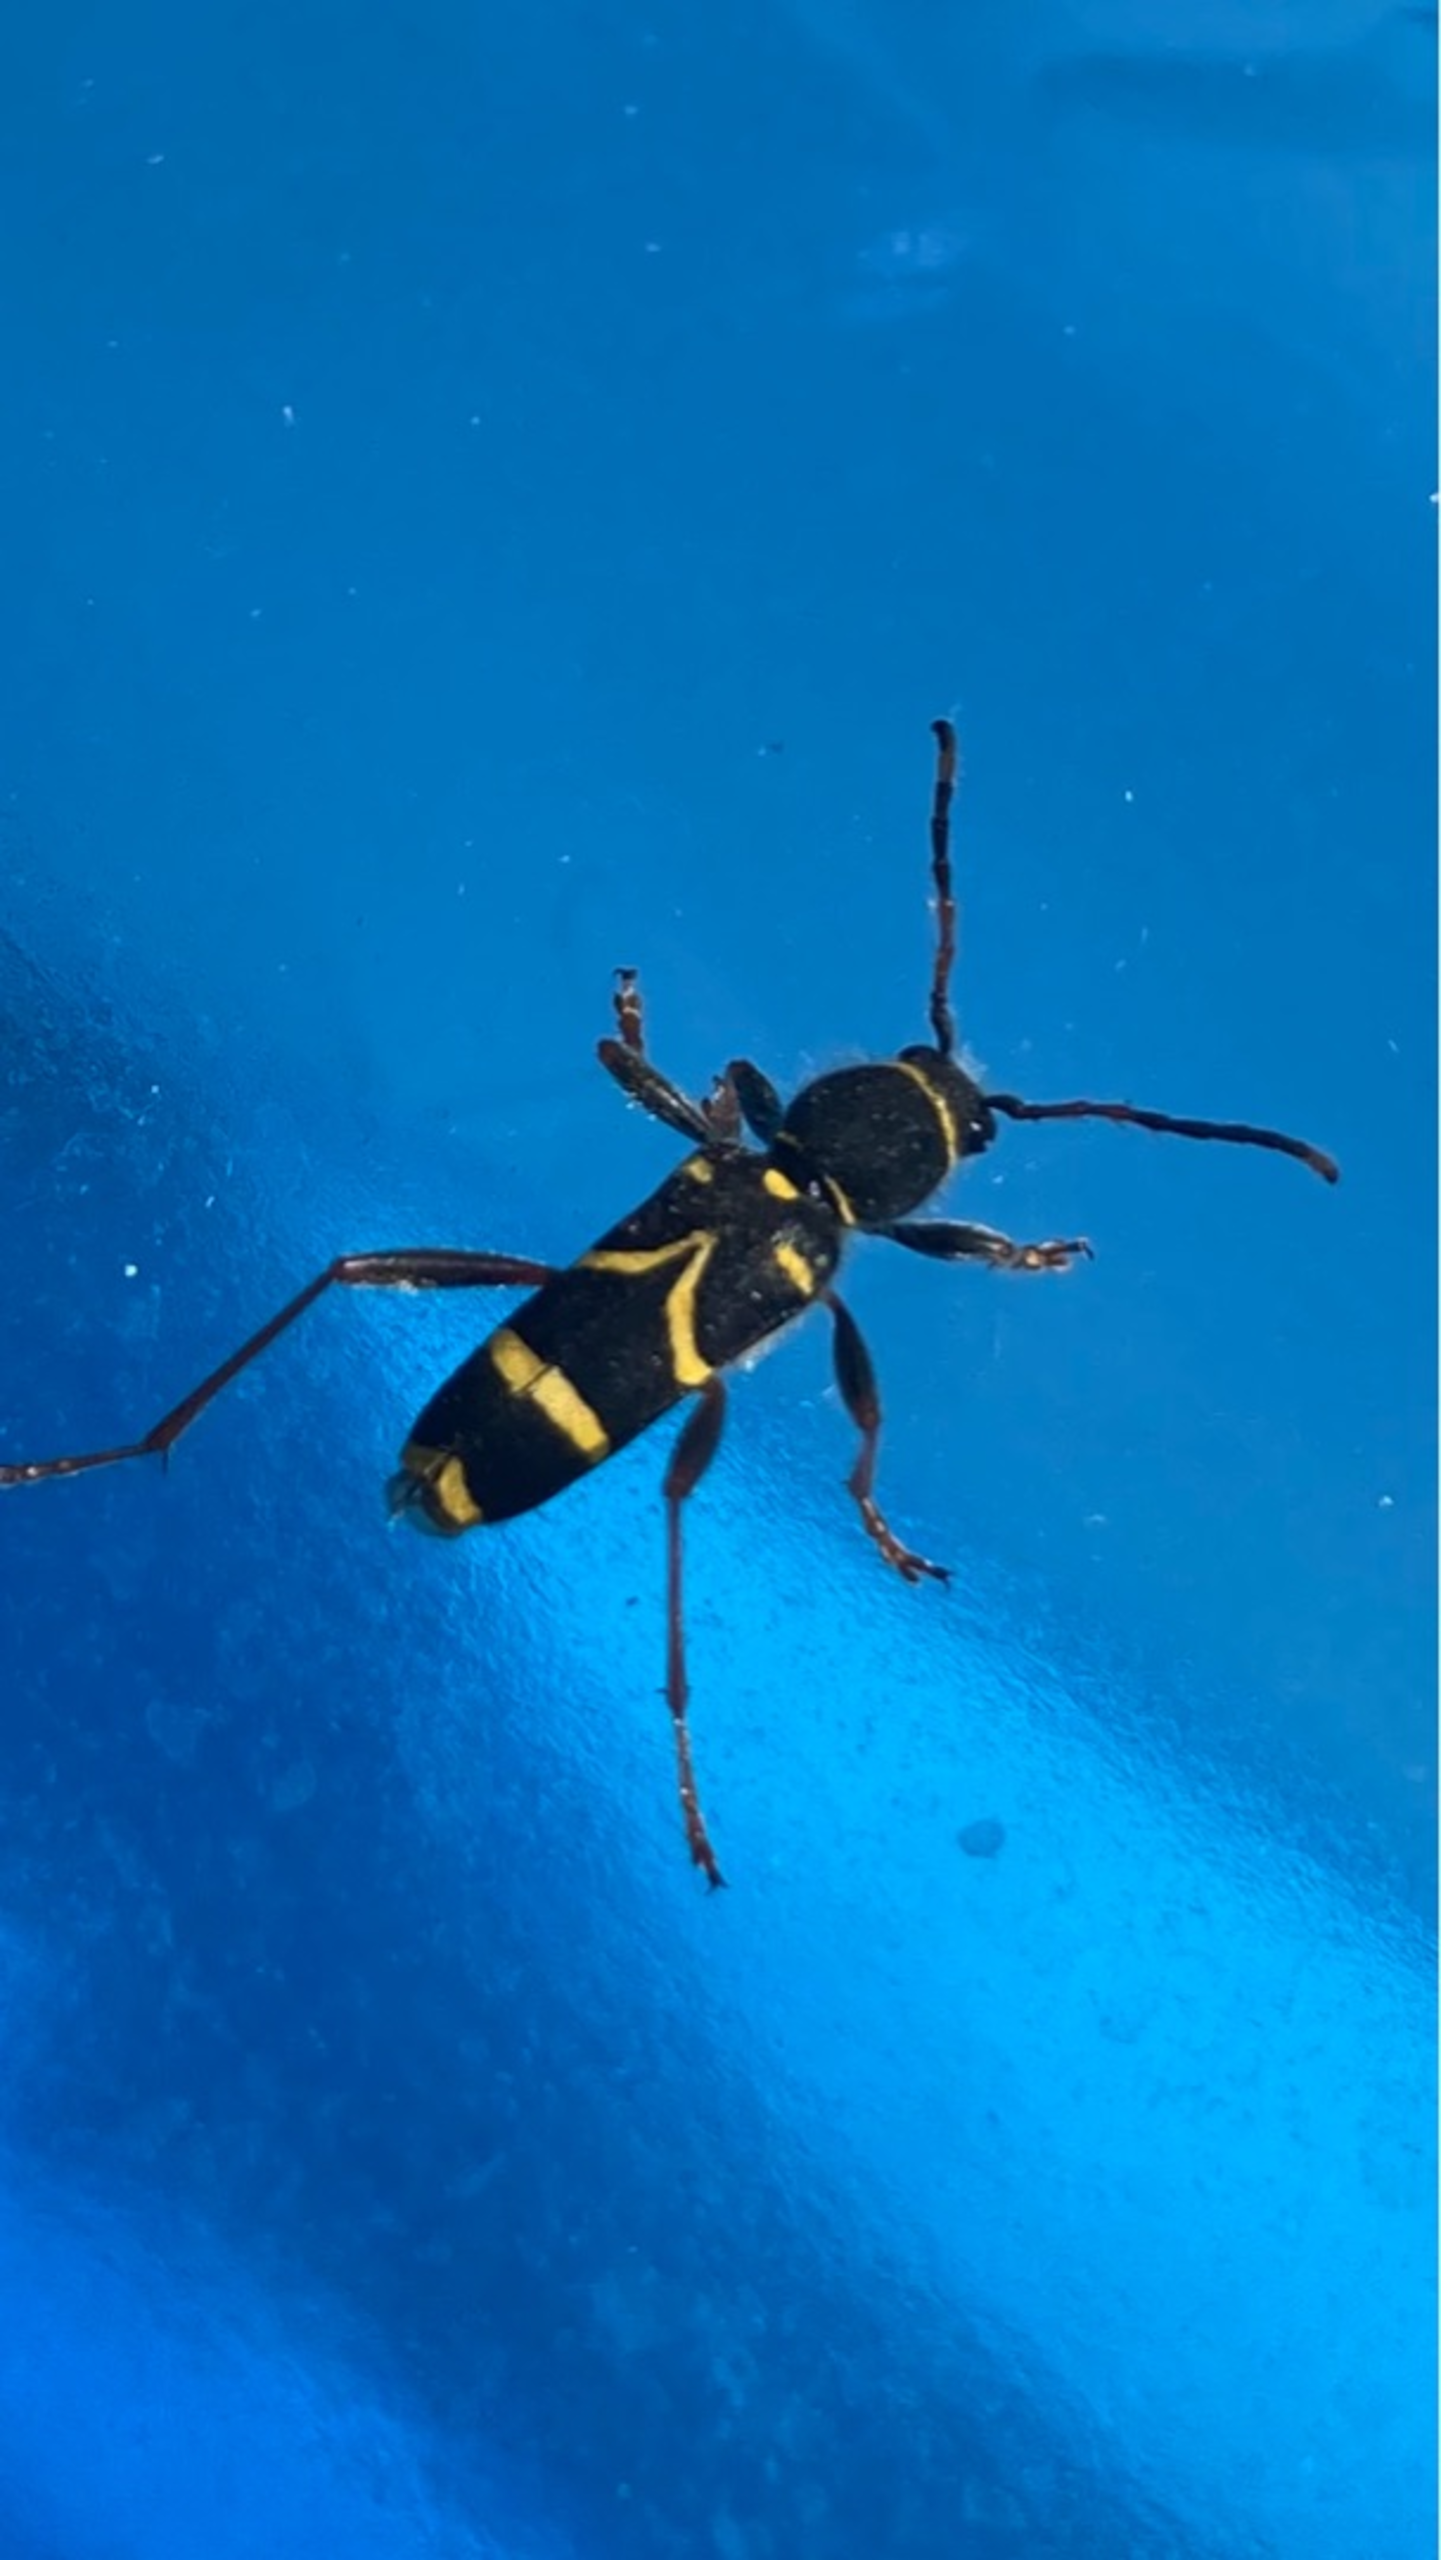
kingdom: Animalia
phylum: Arthropoda
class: Insecta
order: Coleoptera
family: Cerambycidae
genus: Clytus
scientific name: Clytus arietis
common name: Lille hvepsebuk
